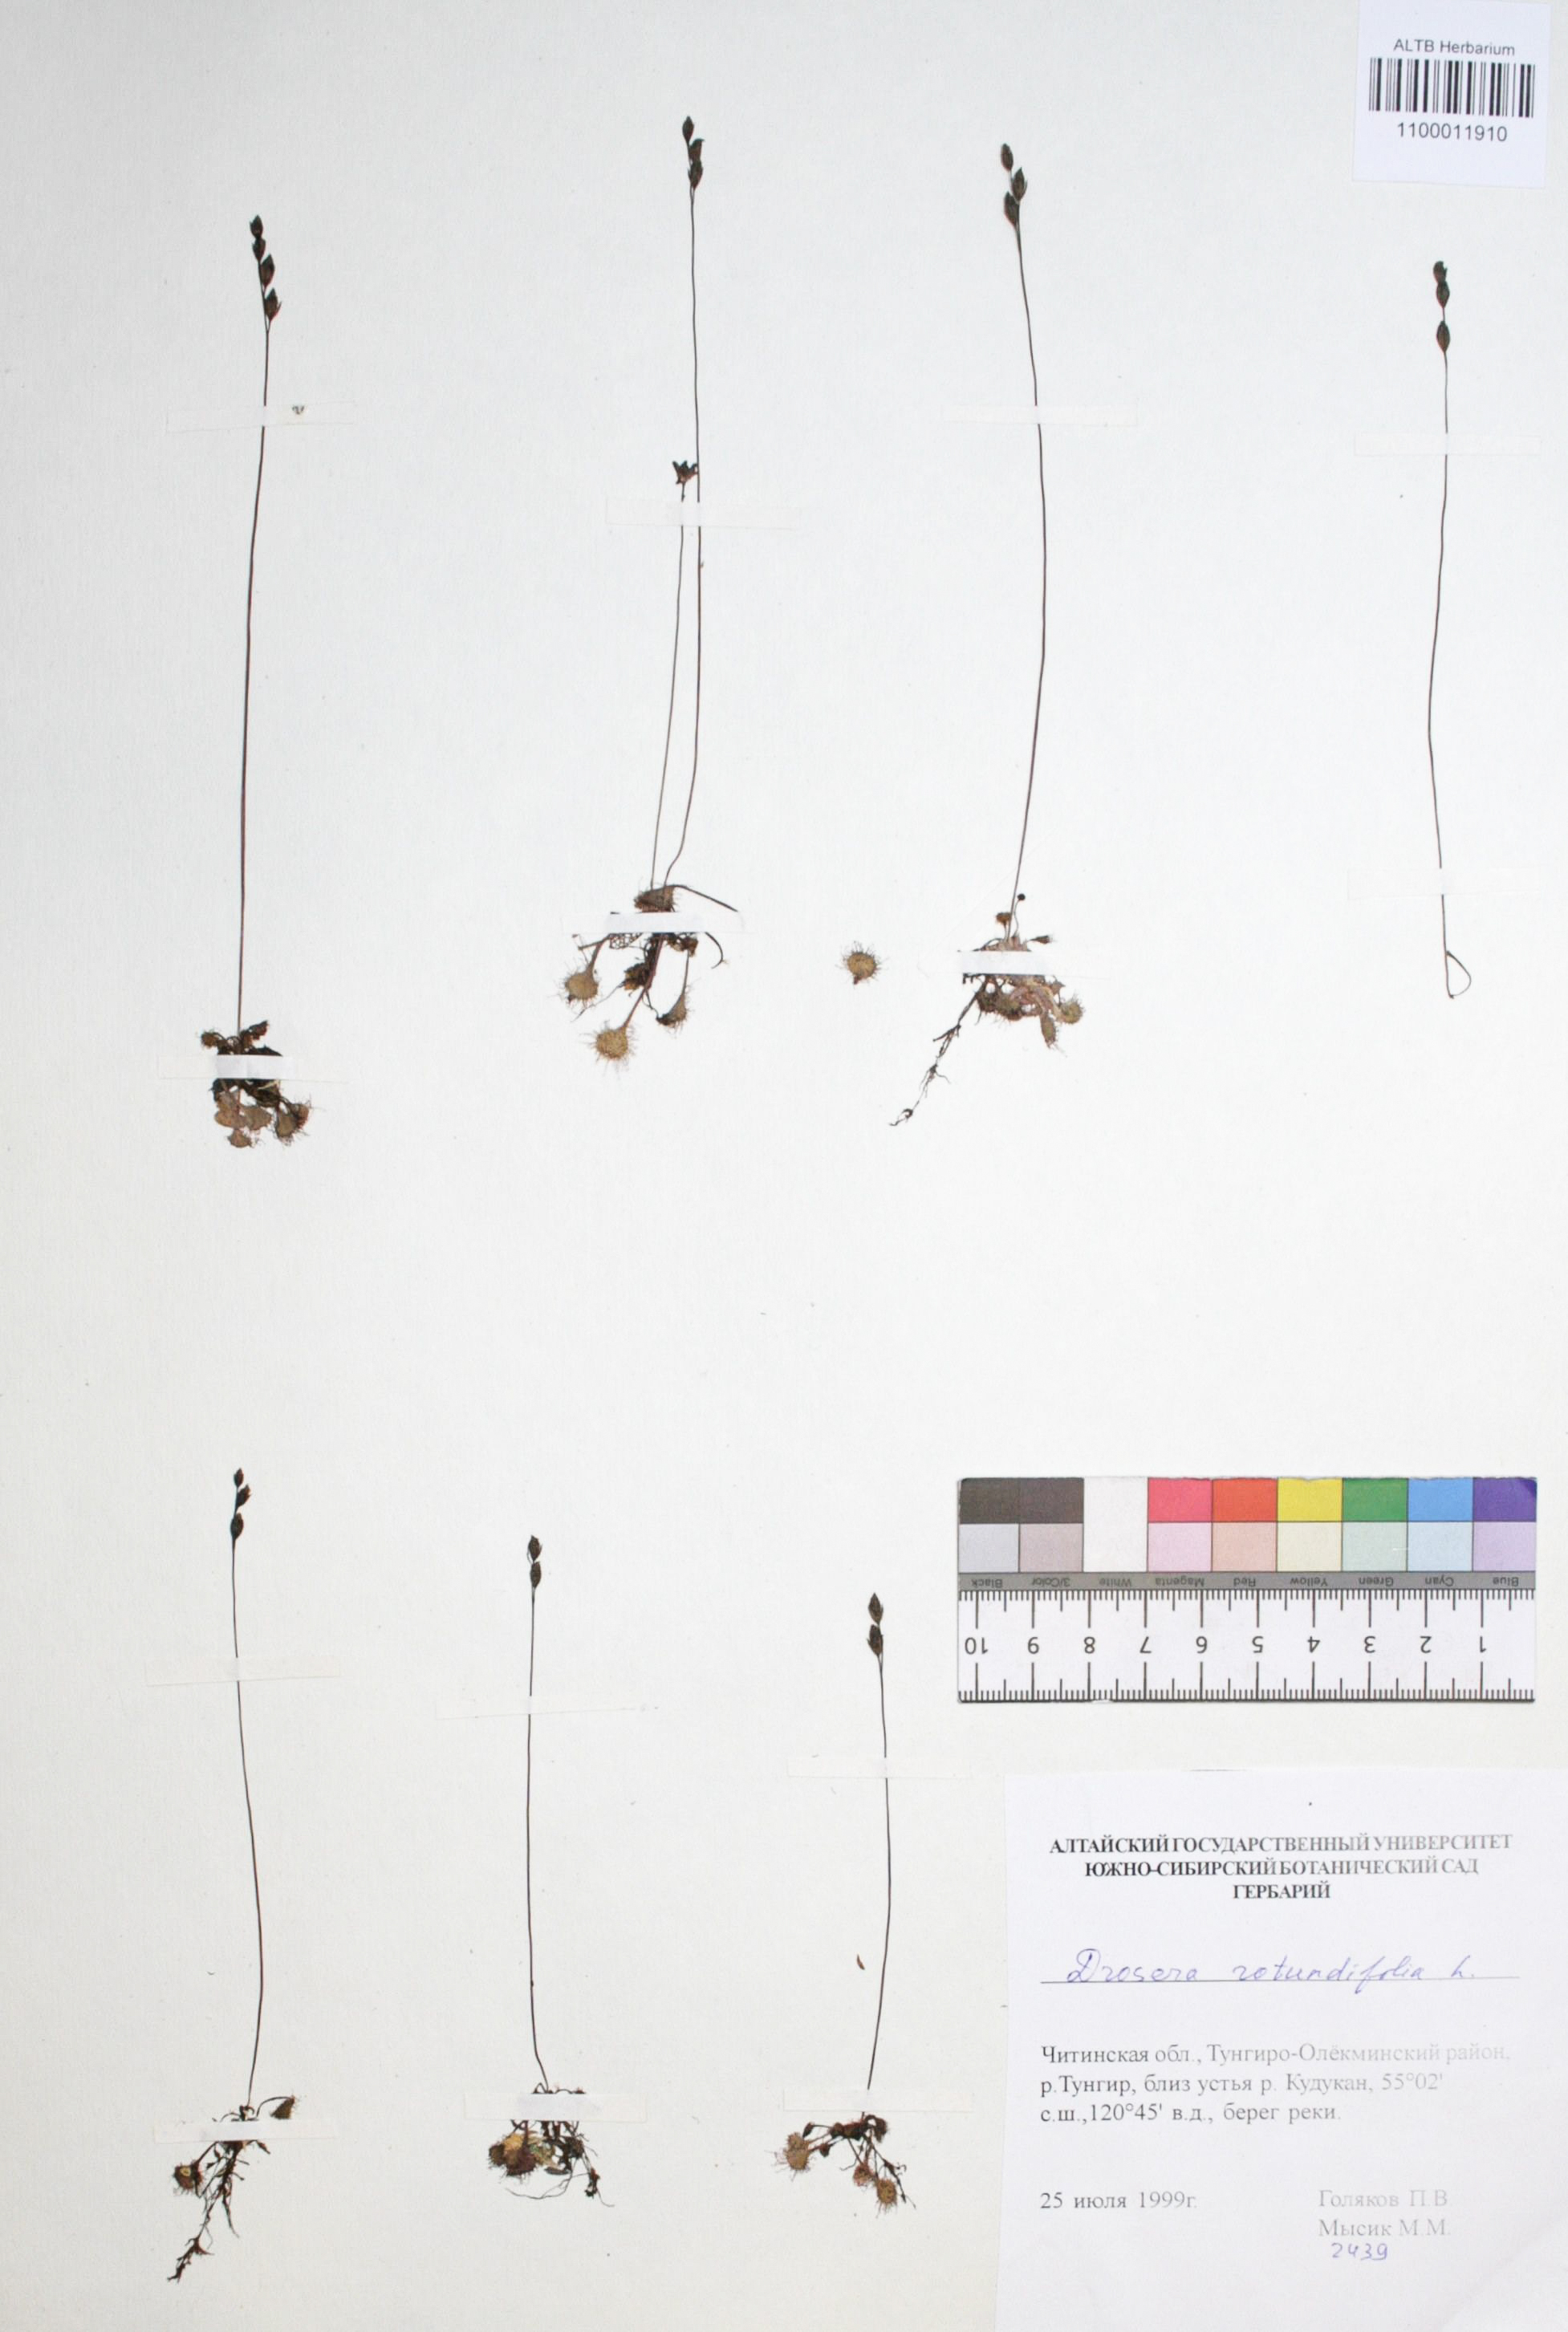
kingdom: Plantae
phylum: Tracheophyta
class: Magnoliopsida
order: Caryophyllales
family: Droseraceae
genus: Drosera
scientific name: Drosera rotundifolia
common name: Round-leaved sundew
